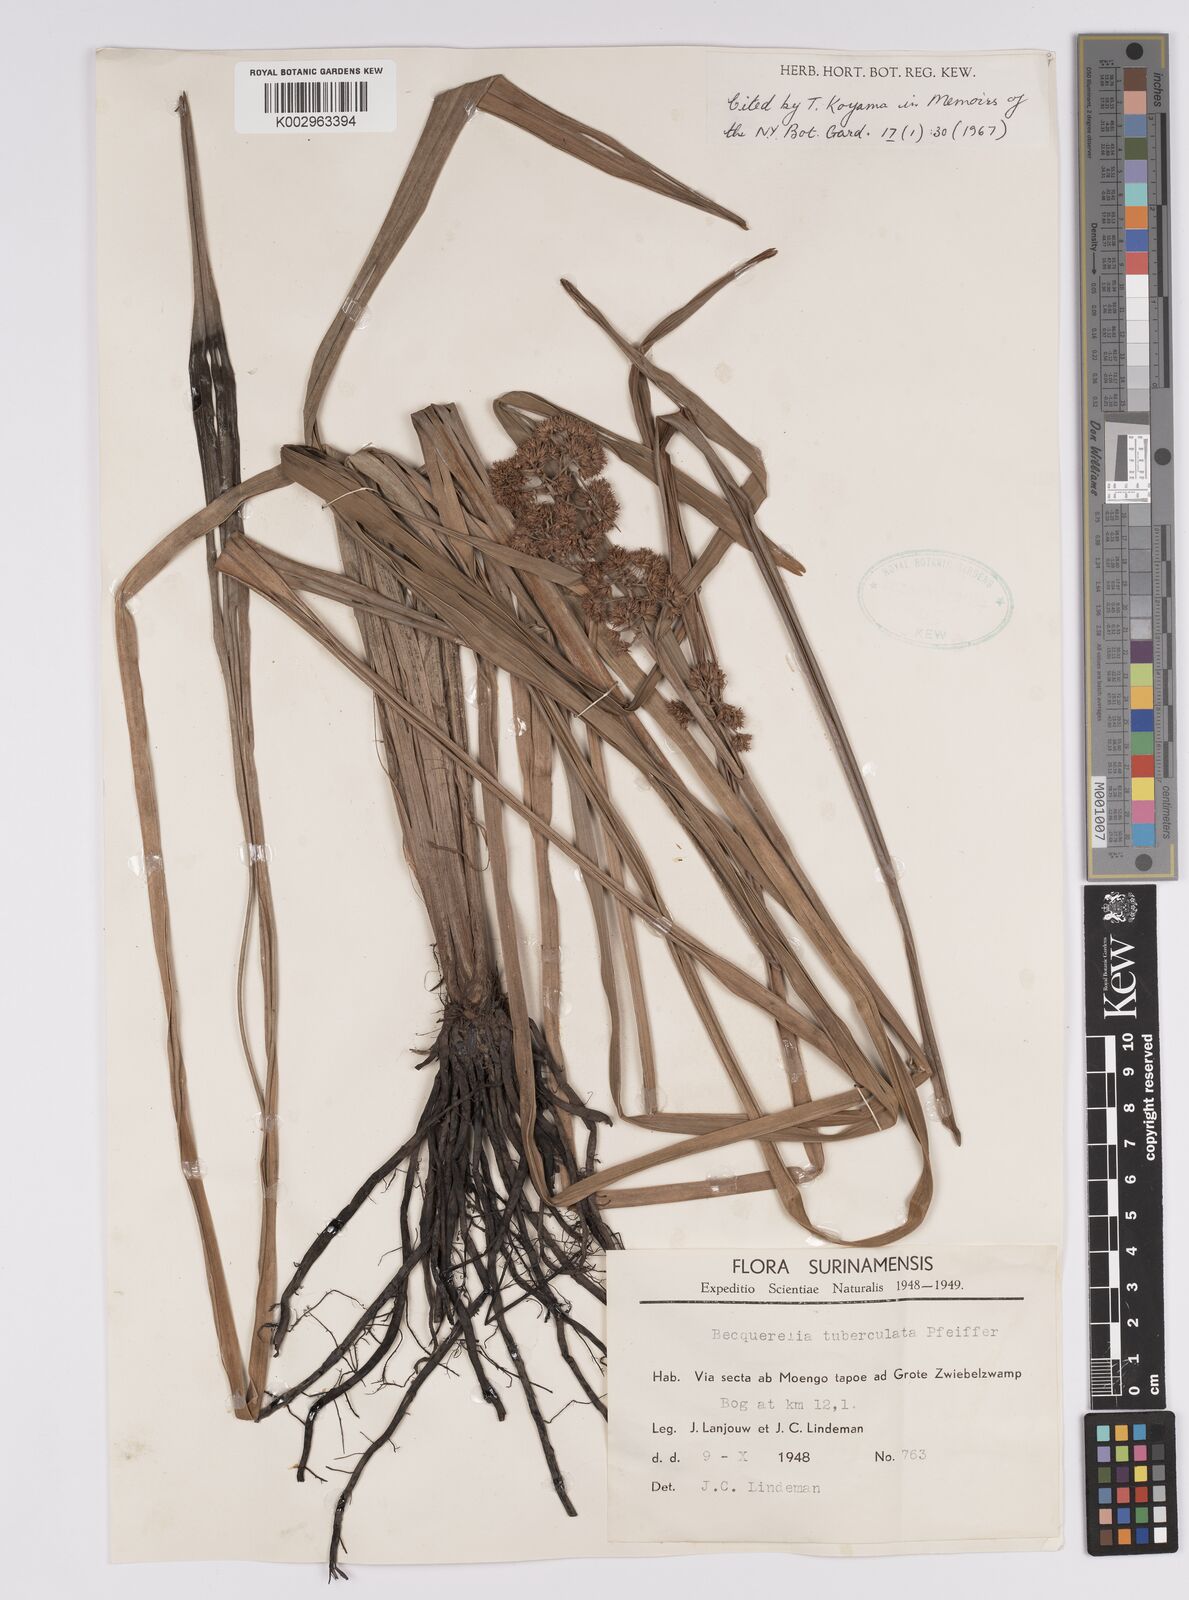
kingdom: Plantae
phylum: Tracheophyta
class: Liliopsida
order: Poales
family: Cyperaceae
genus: Becquerelia
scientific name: Becquerelia tuberculata
